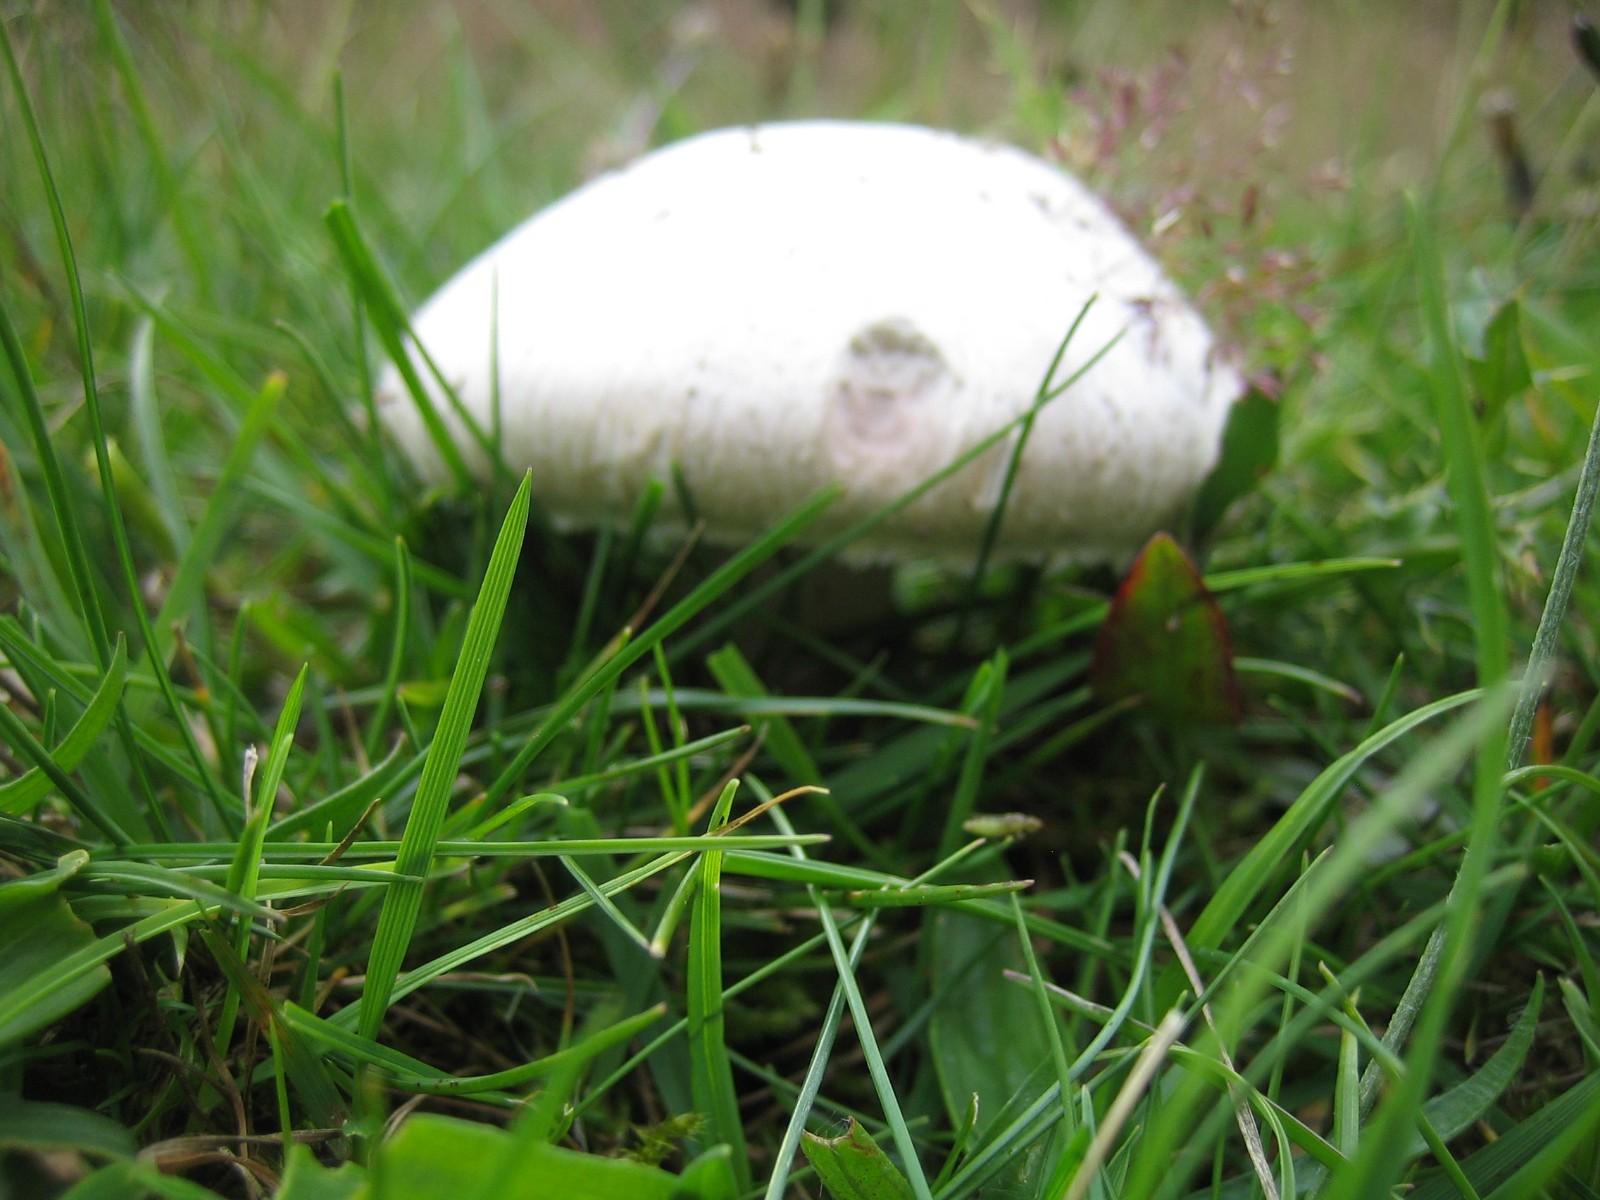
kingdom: Fungi
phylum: Basidiomycota
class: Agaricomycetes
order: Agaricales
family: Agaricaceae
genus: Agaricus
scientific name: Agaricus campestris
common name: mark-champignon
